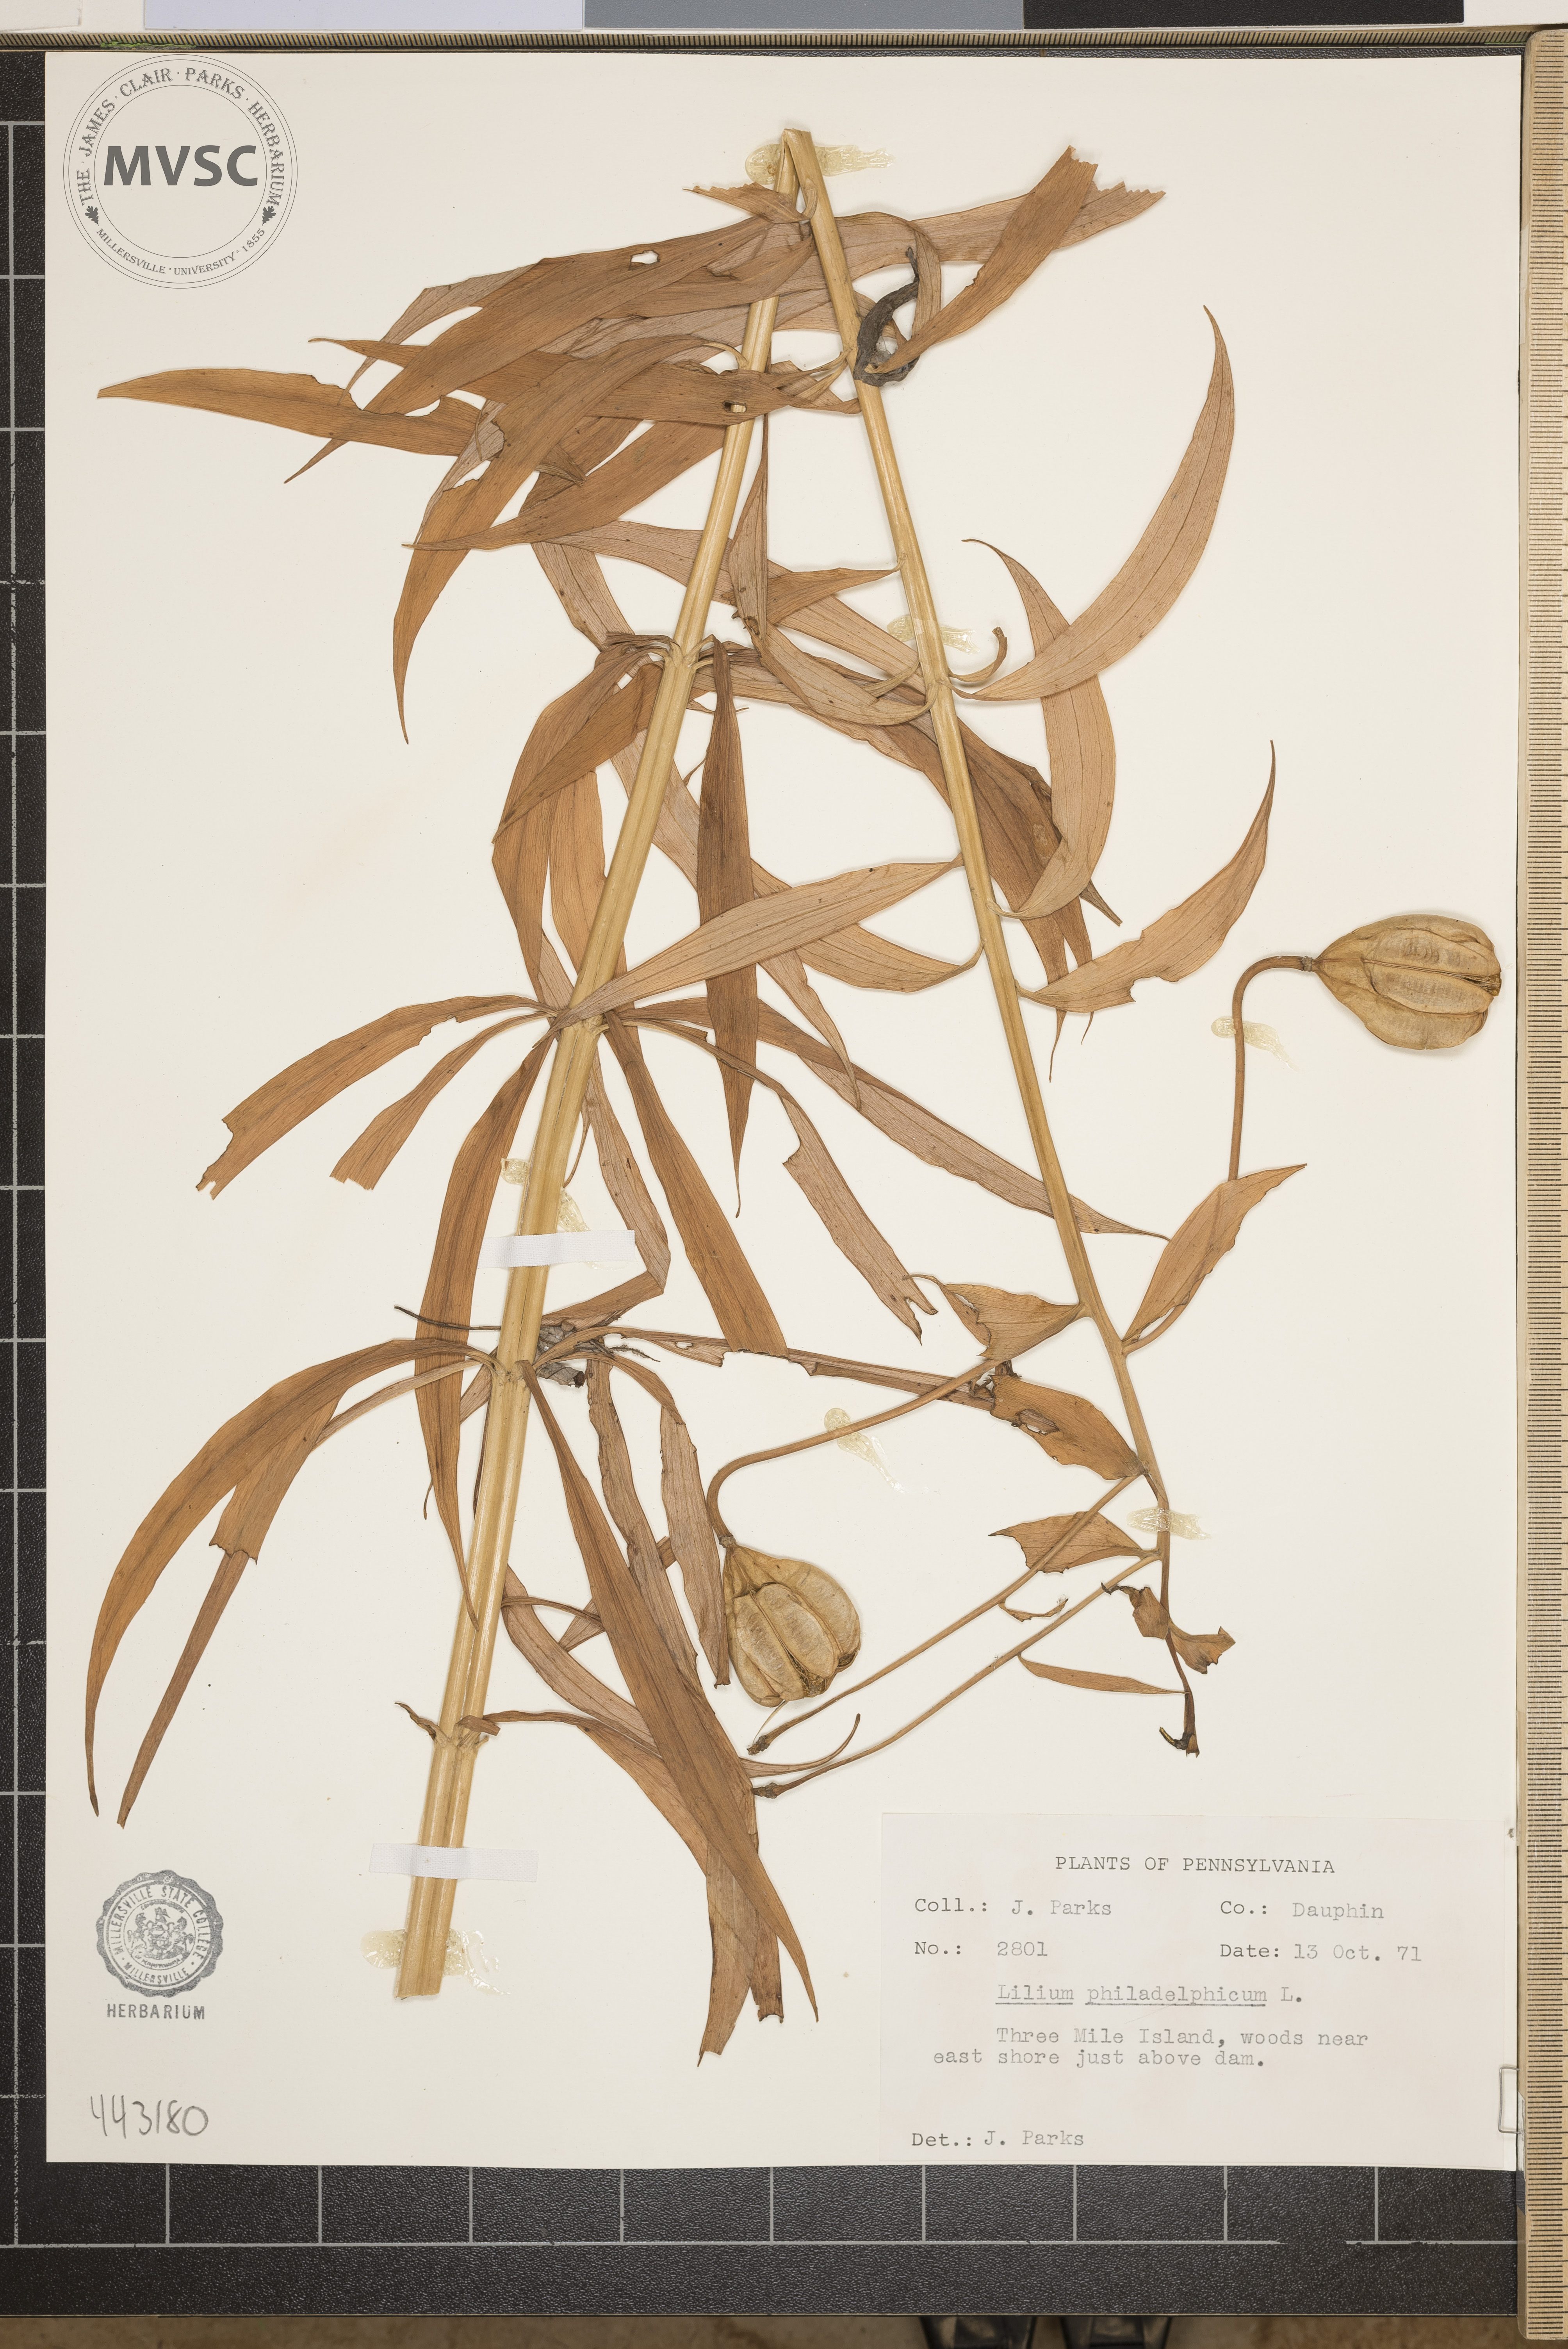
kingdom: Plantae
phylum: Tracheophyta
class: Liliopsida
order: Liliales
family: Liliaceae
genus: Lilium
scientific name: Lilium philadelphicum
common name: Red lily
